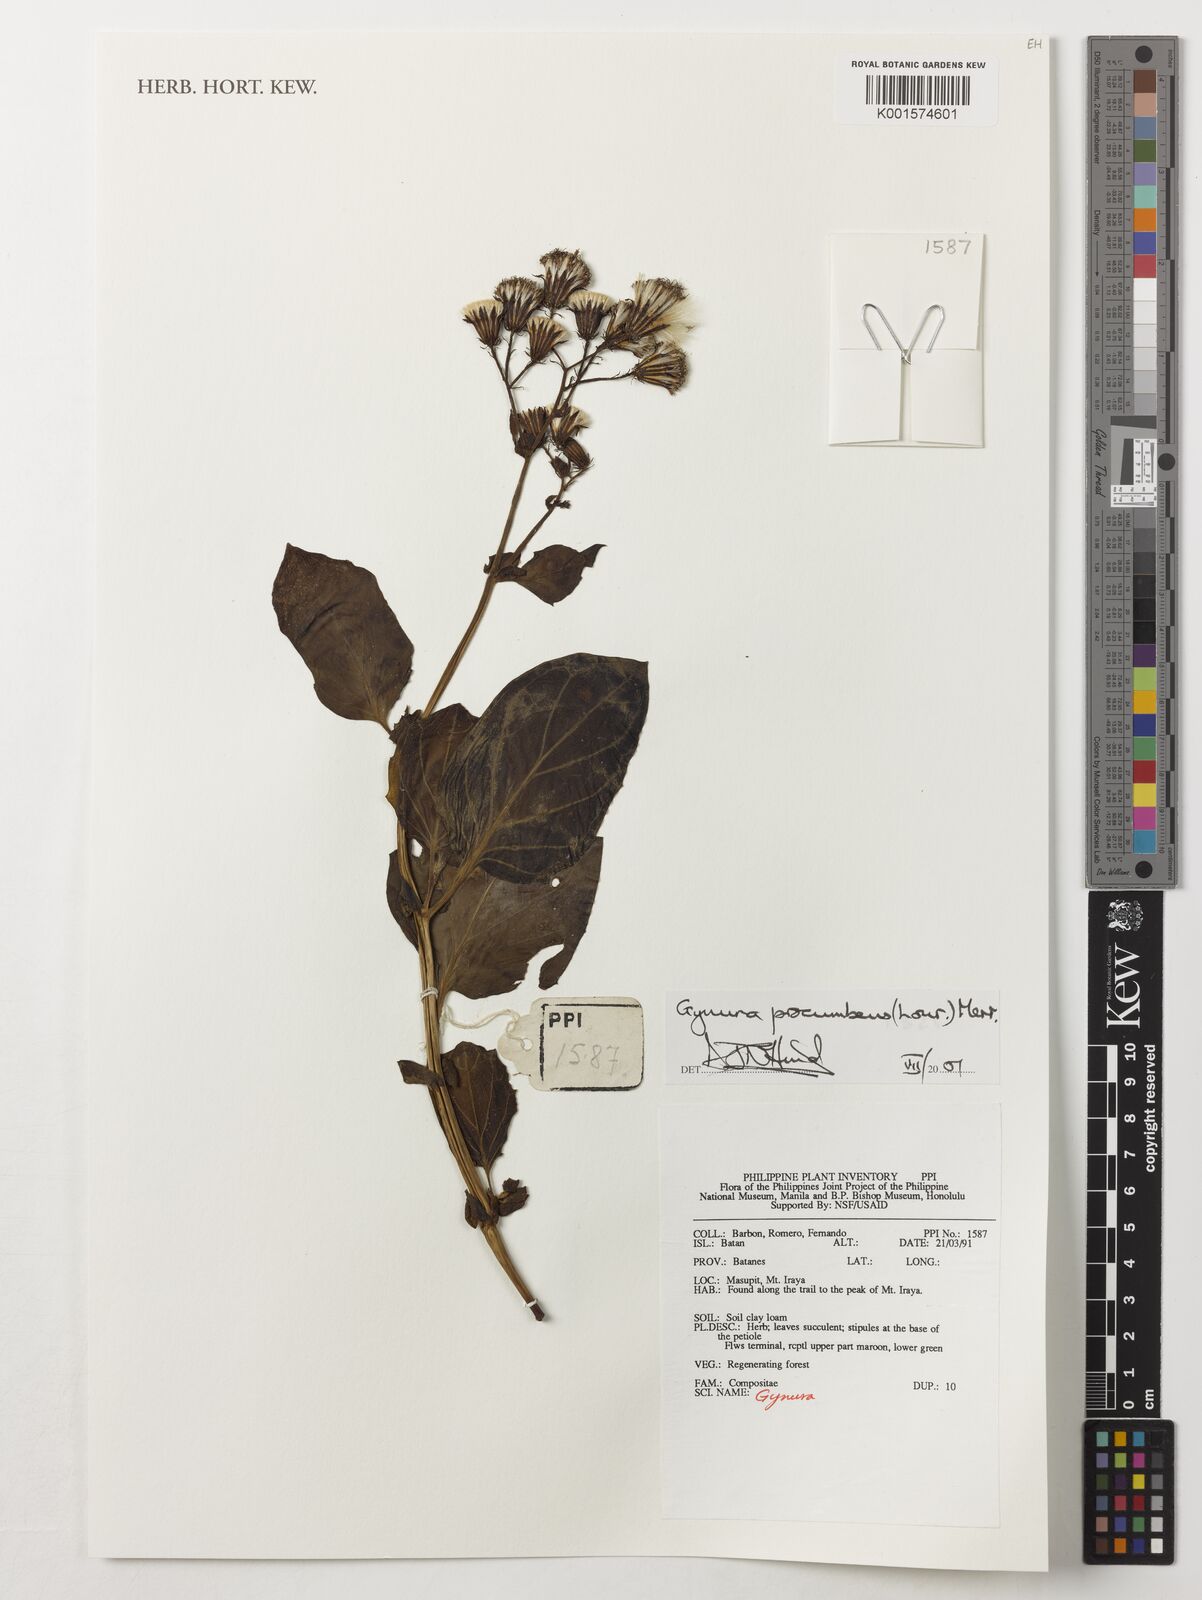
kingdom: Plantae
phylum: Tracheophyta
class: Magnoliopsida
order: Asterales
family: Asteraceae
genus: Gynura
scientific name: Gynura procumbens
